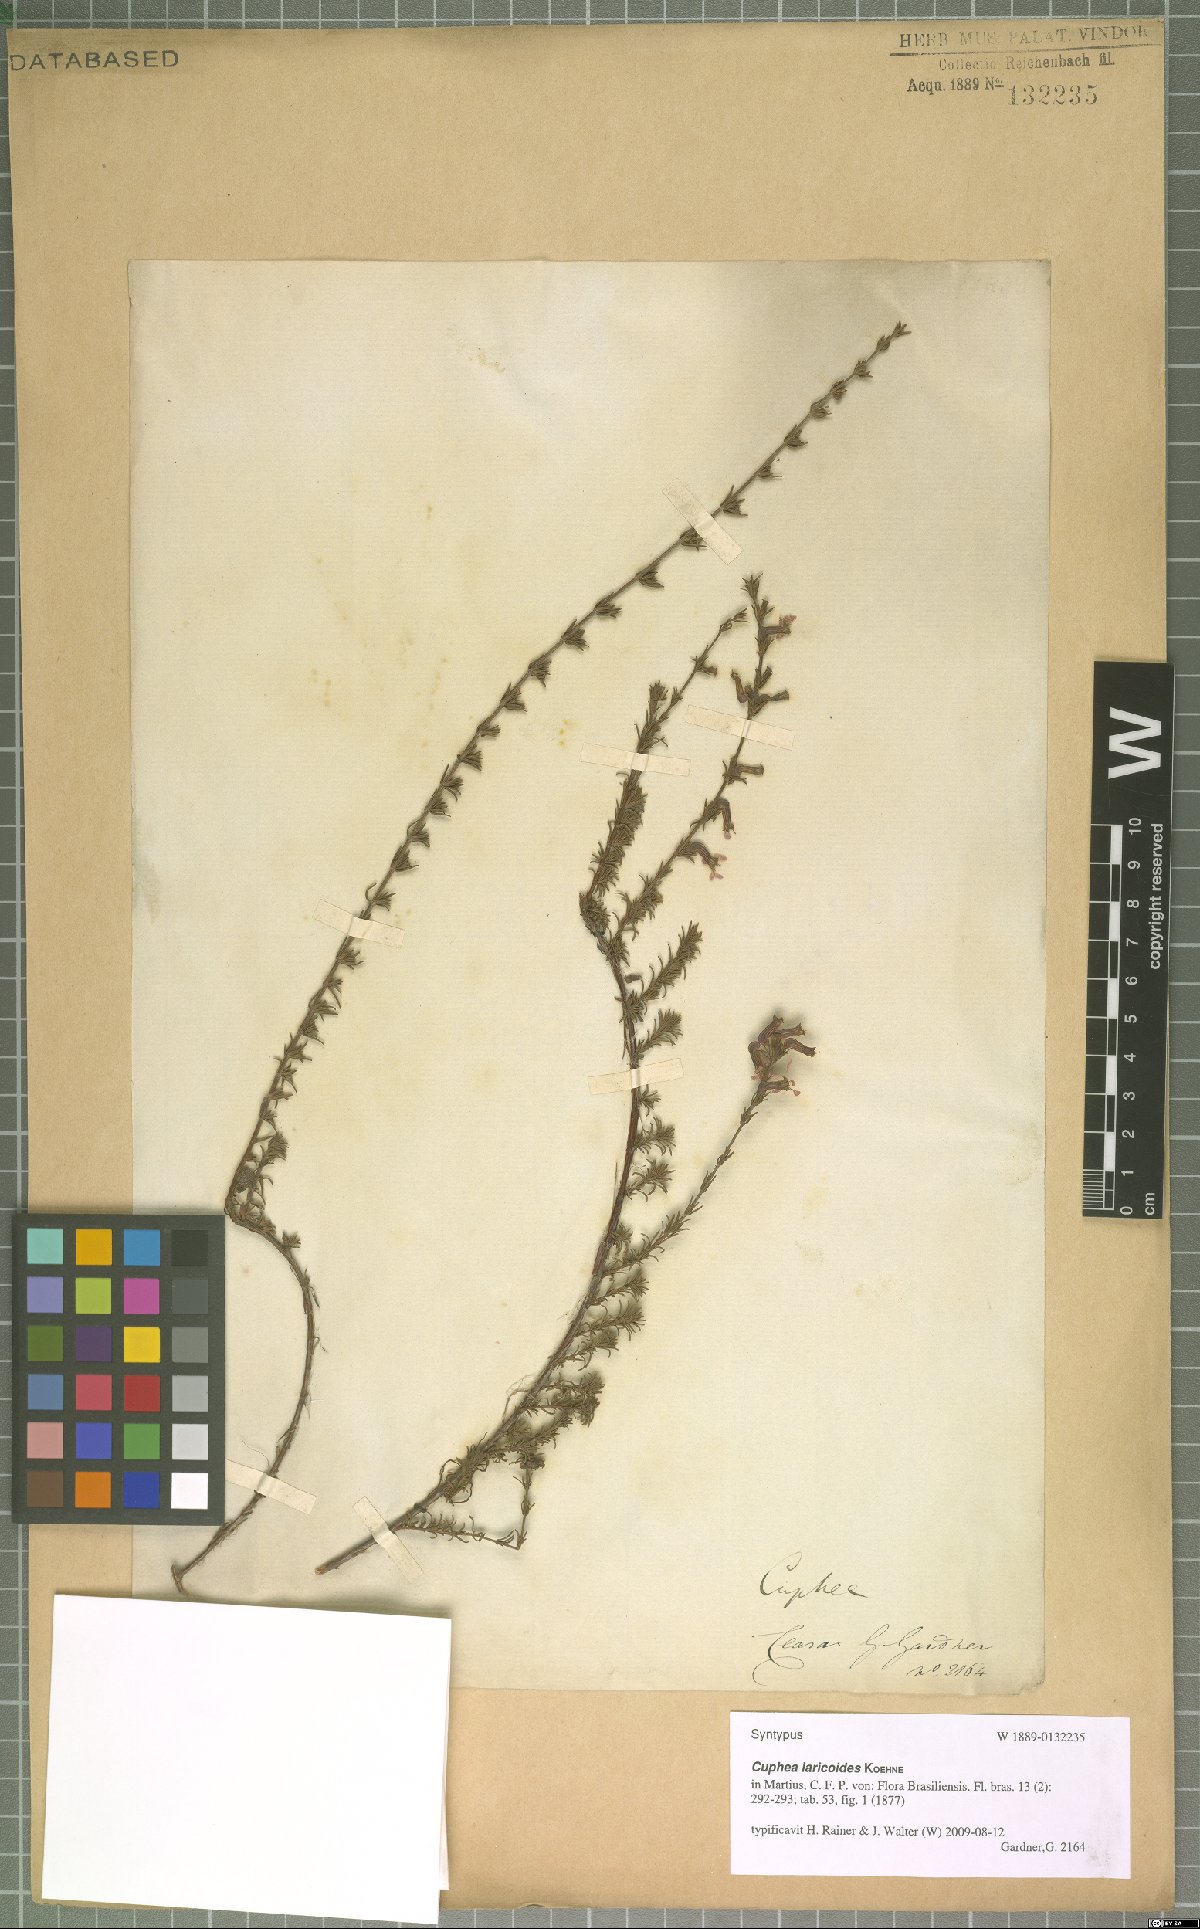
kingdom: Plantae
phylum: Tracheophyta
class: Magnoliopsida
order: Myrtales
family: Lythraceae
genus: Cuphea
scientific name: Cuphea laricoides
